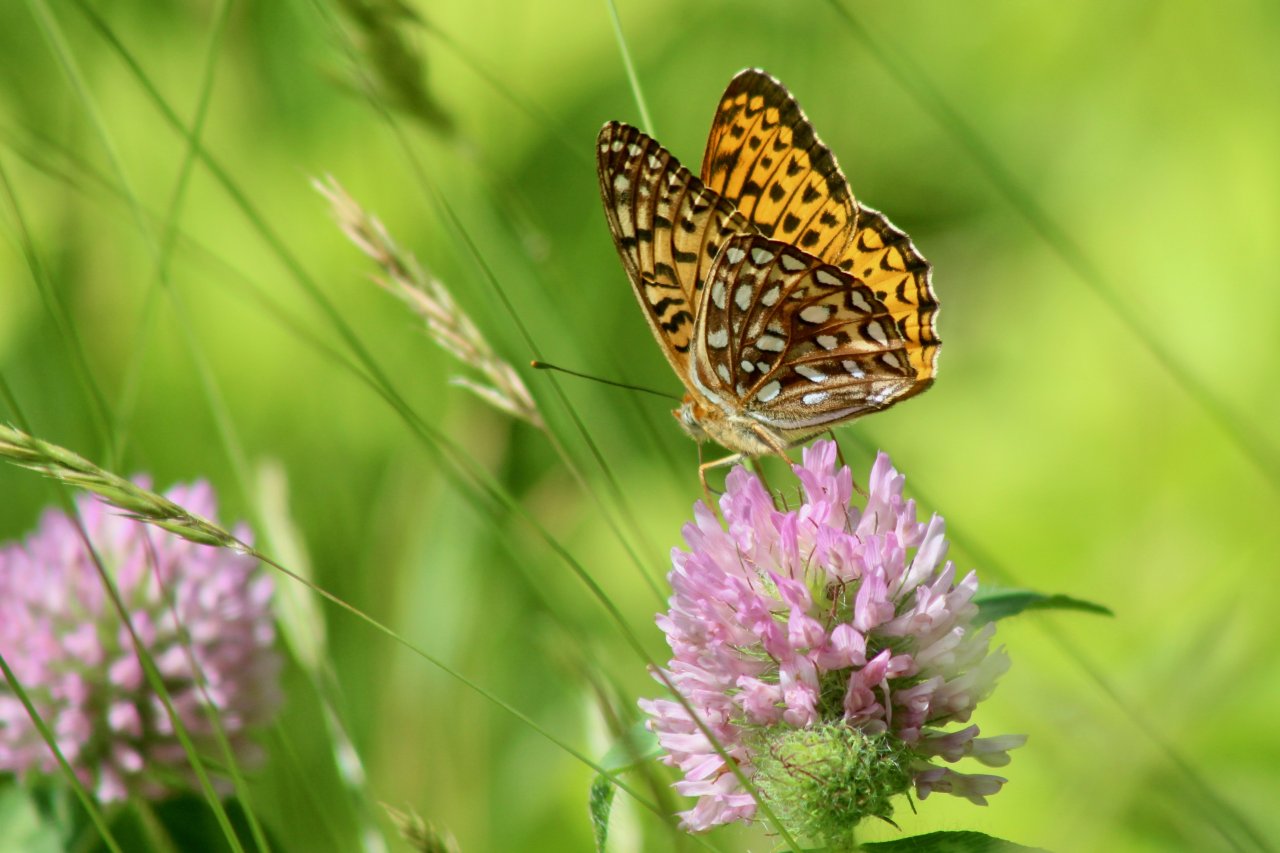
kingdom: Animalia
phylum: Arthropoda
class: Insecta
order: Lepidoptera
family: Nymphalidae
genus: Speyeria
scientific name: Speyeria atlantis
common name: Atlantis Fritillary
